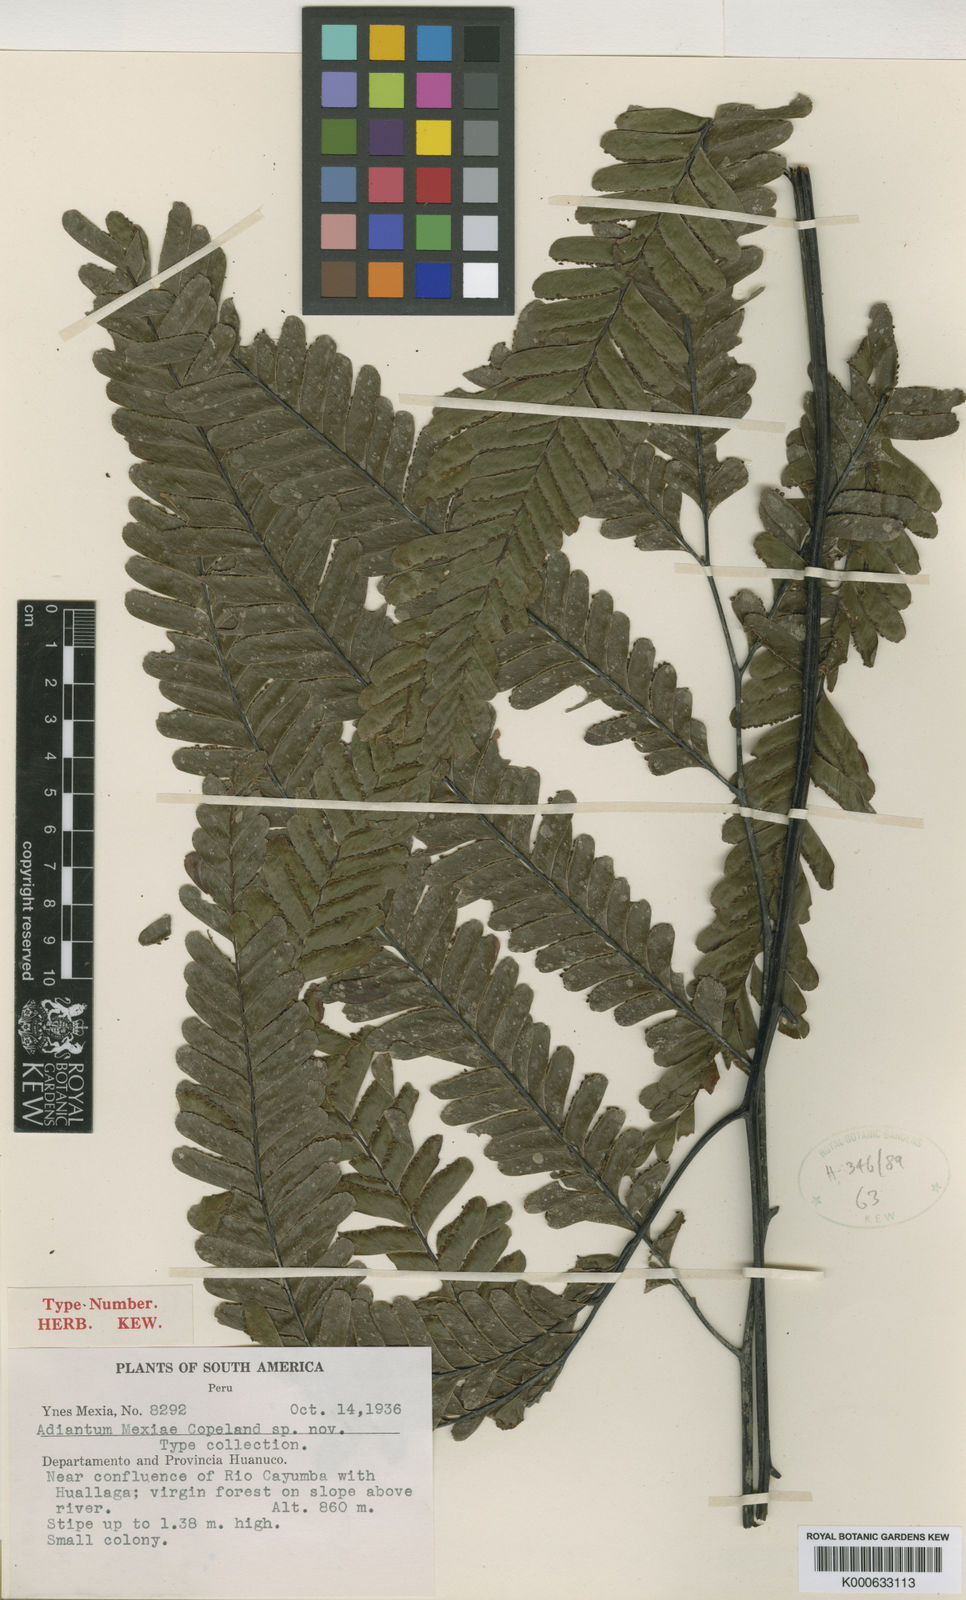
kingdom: Plantae
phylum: Tracheophyta
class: Polypodiopsida
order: Polypodiales
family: Pteridaceae
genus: Adiantum
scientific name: Adiantum macrocladum
